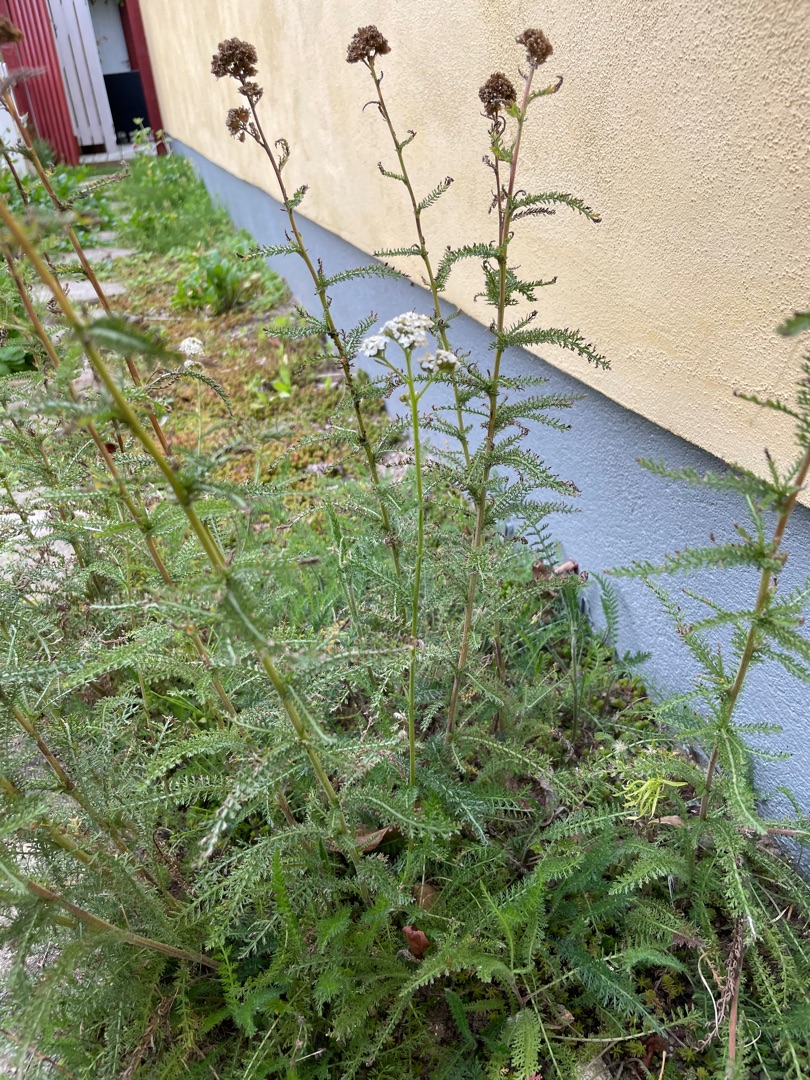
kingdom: Plantae
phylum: Tracheophyta
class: Magnoliopsida
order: Asterales
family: Asteraceae
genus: Achillea
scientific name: Achillea millefolium
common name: Almindelig røllike
